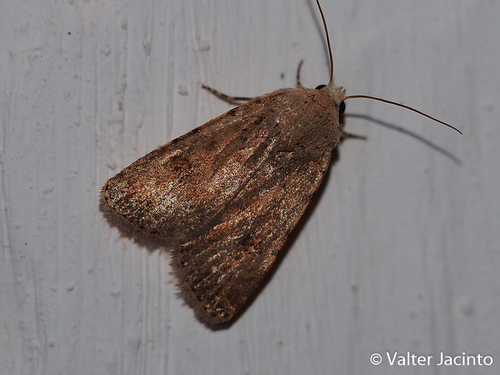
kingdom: Animalia
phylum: Arthropoda
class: Insecta
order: Lepidoptera
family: Noctuidae
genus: Caradrina
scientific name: Caradrina aspersa
